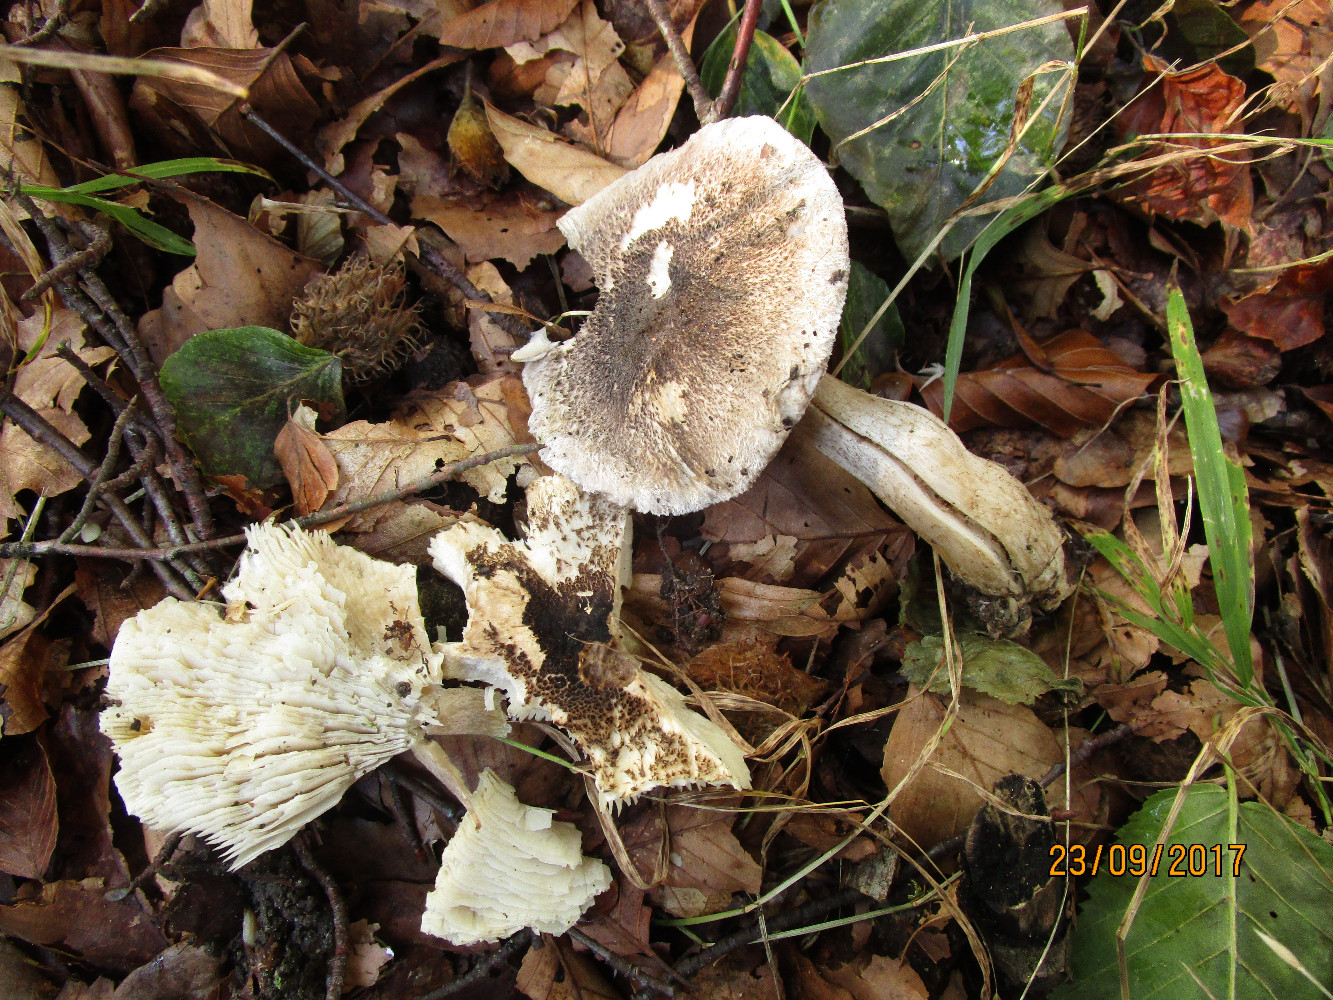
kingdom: Fungi
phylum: Basidiomycota
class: Agaricomycetes
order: Agaricales
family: Tricholomataceae
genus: Tricholoma
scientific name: Tricholoma orirubens
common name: rødbladet ridderhat
